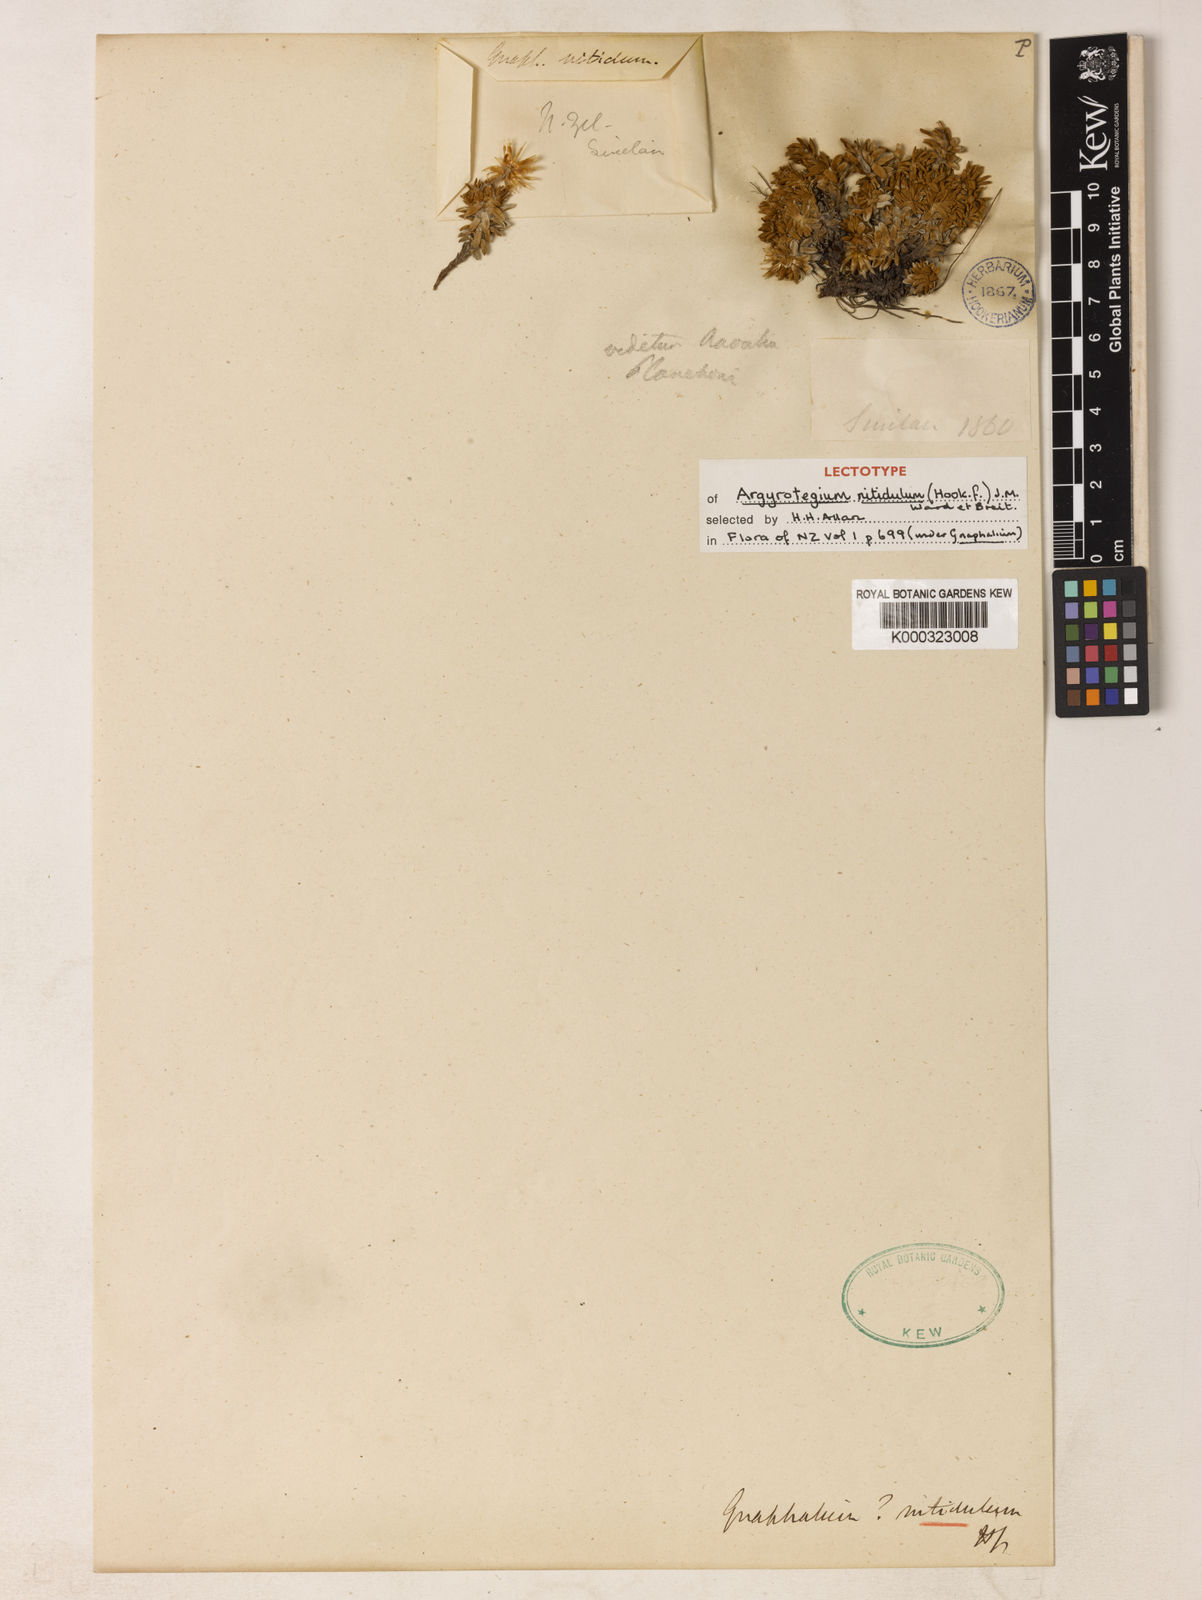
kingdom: Plantae
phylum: Tracheophyta
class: Magnoliopsida
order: Asterales
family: Asteraceae
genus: Argyrotegium
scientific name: Argyrotegium nitidulum
